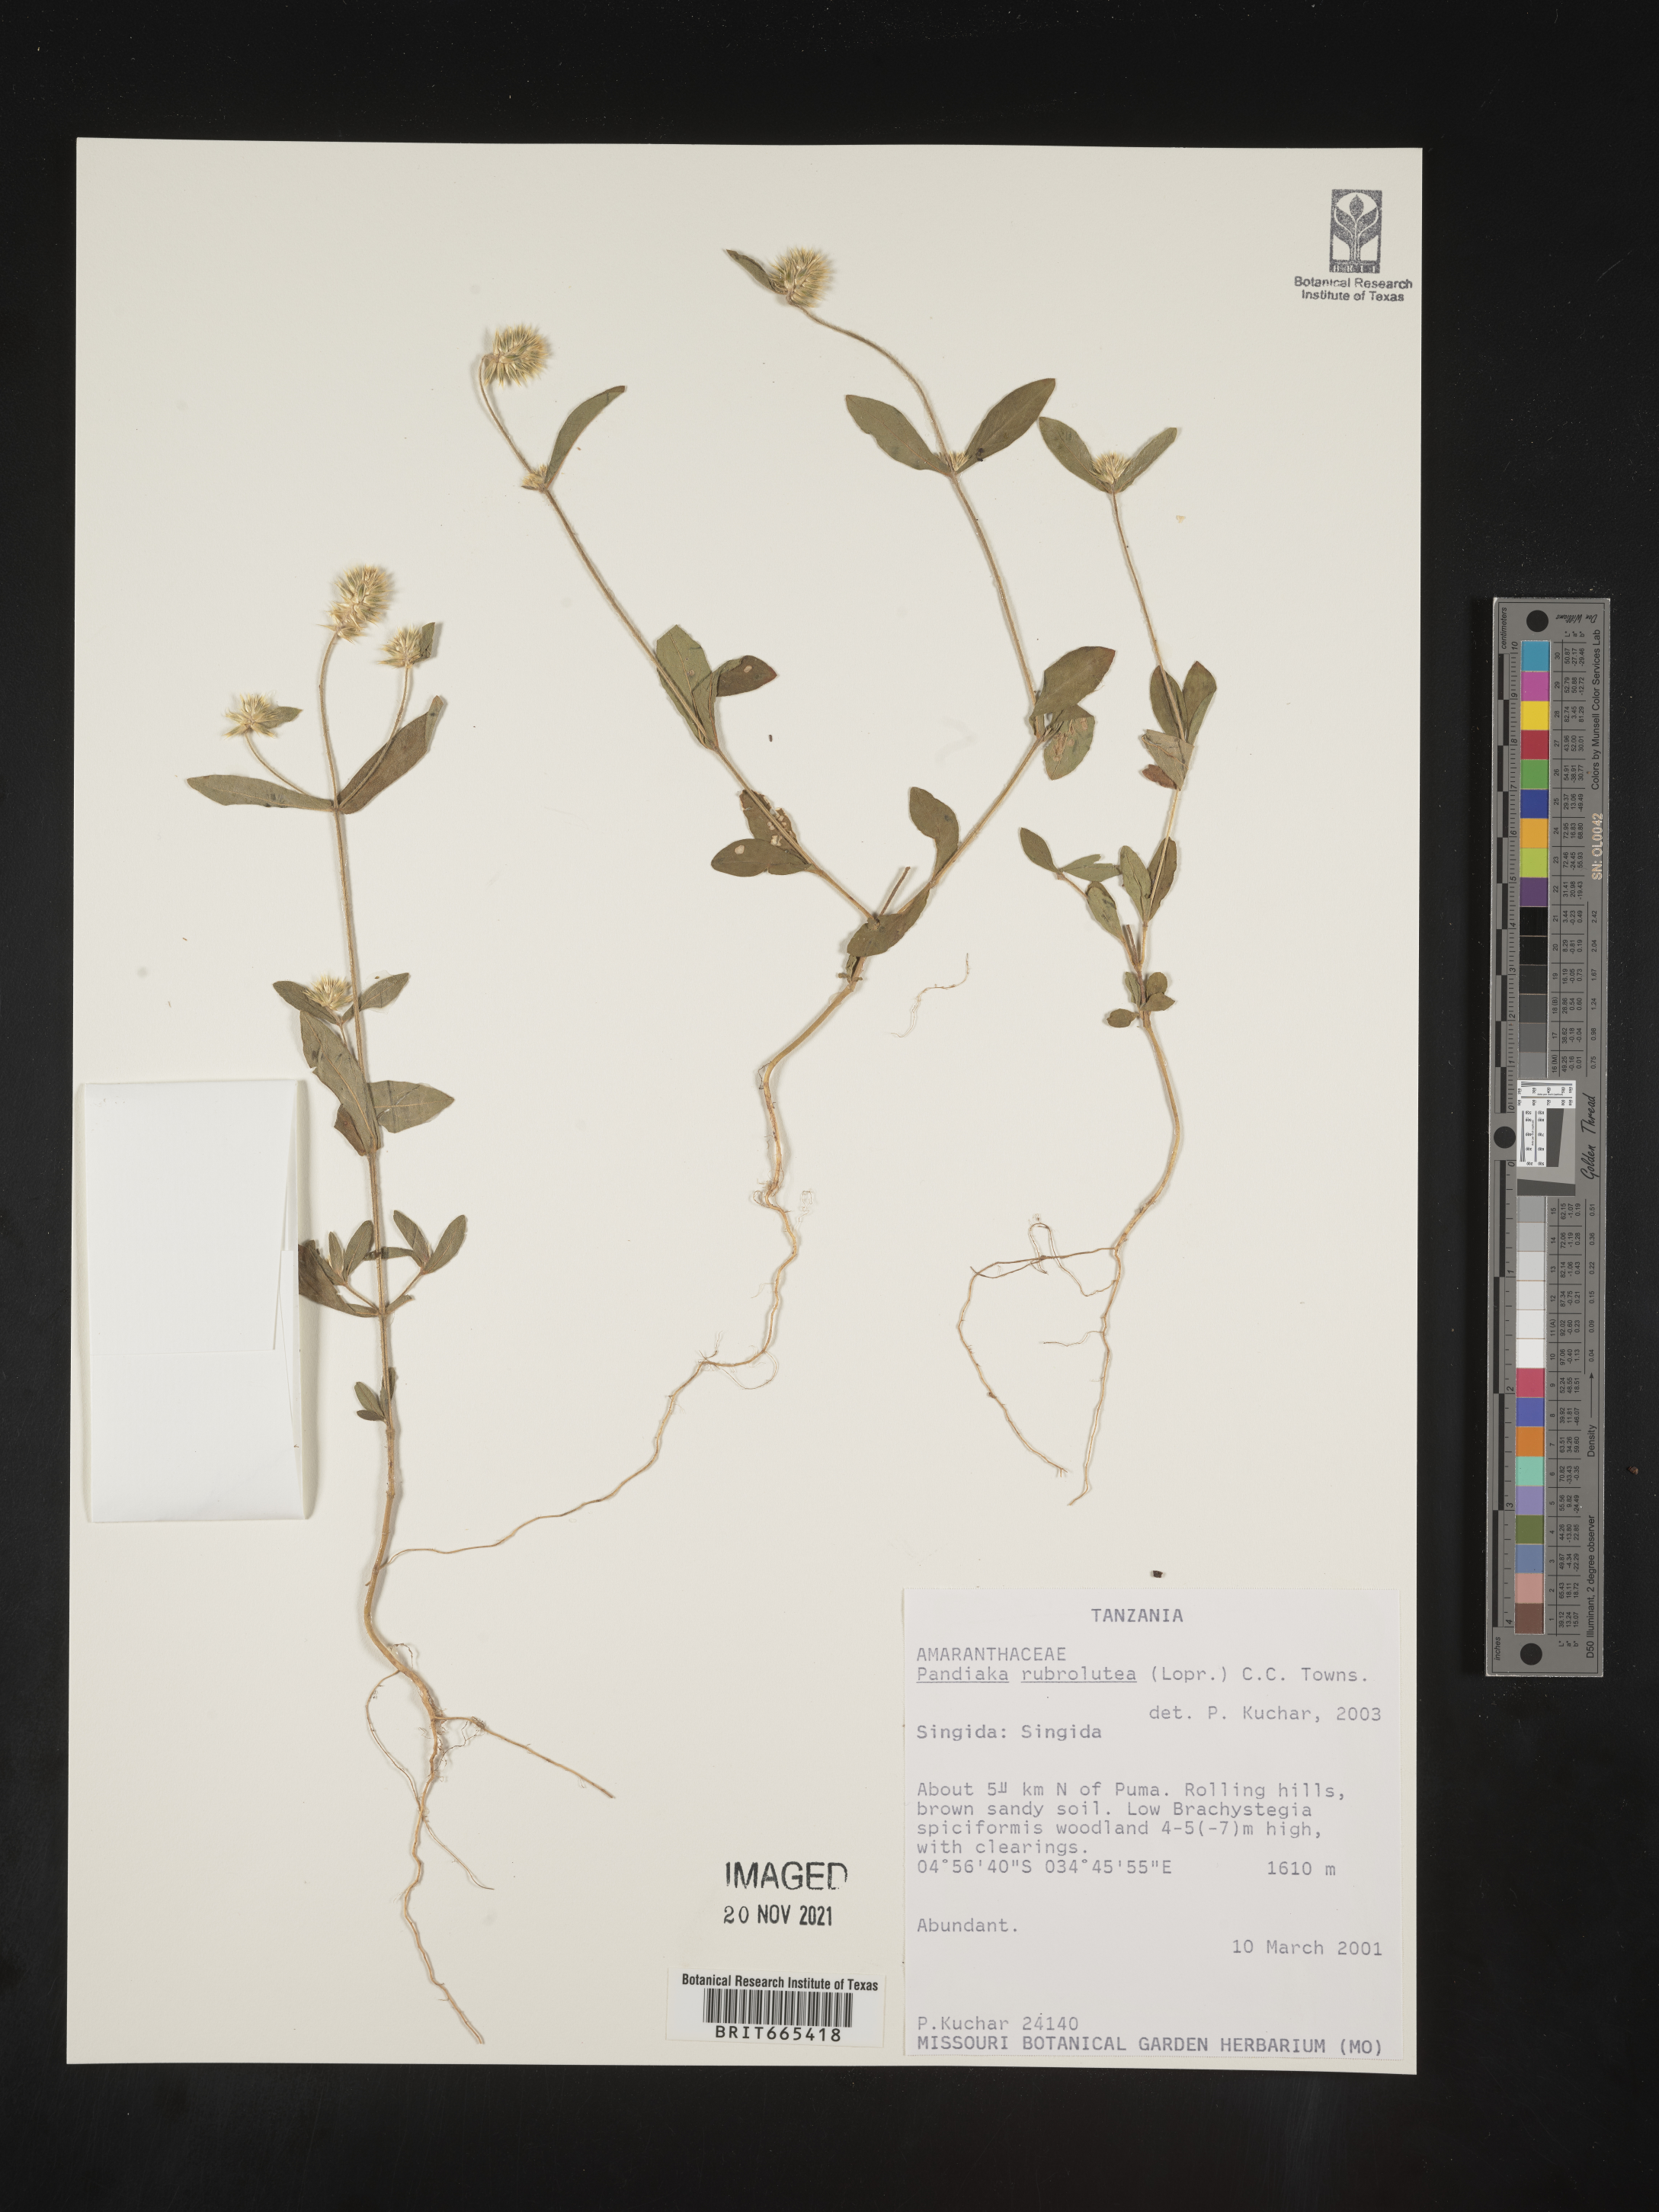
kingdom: Plantae
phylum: Tracheophyta
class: Magnoliopsida
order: Caryophyllales
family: Amaranthaceae
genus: Pandiaka
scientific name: Pandiaka
